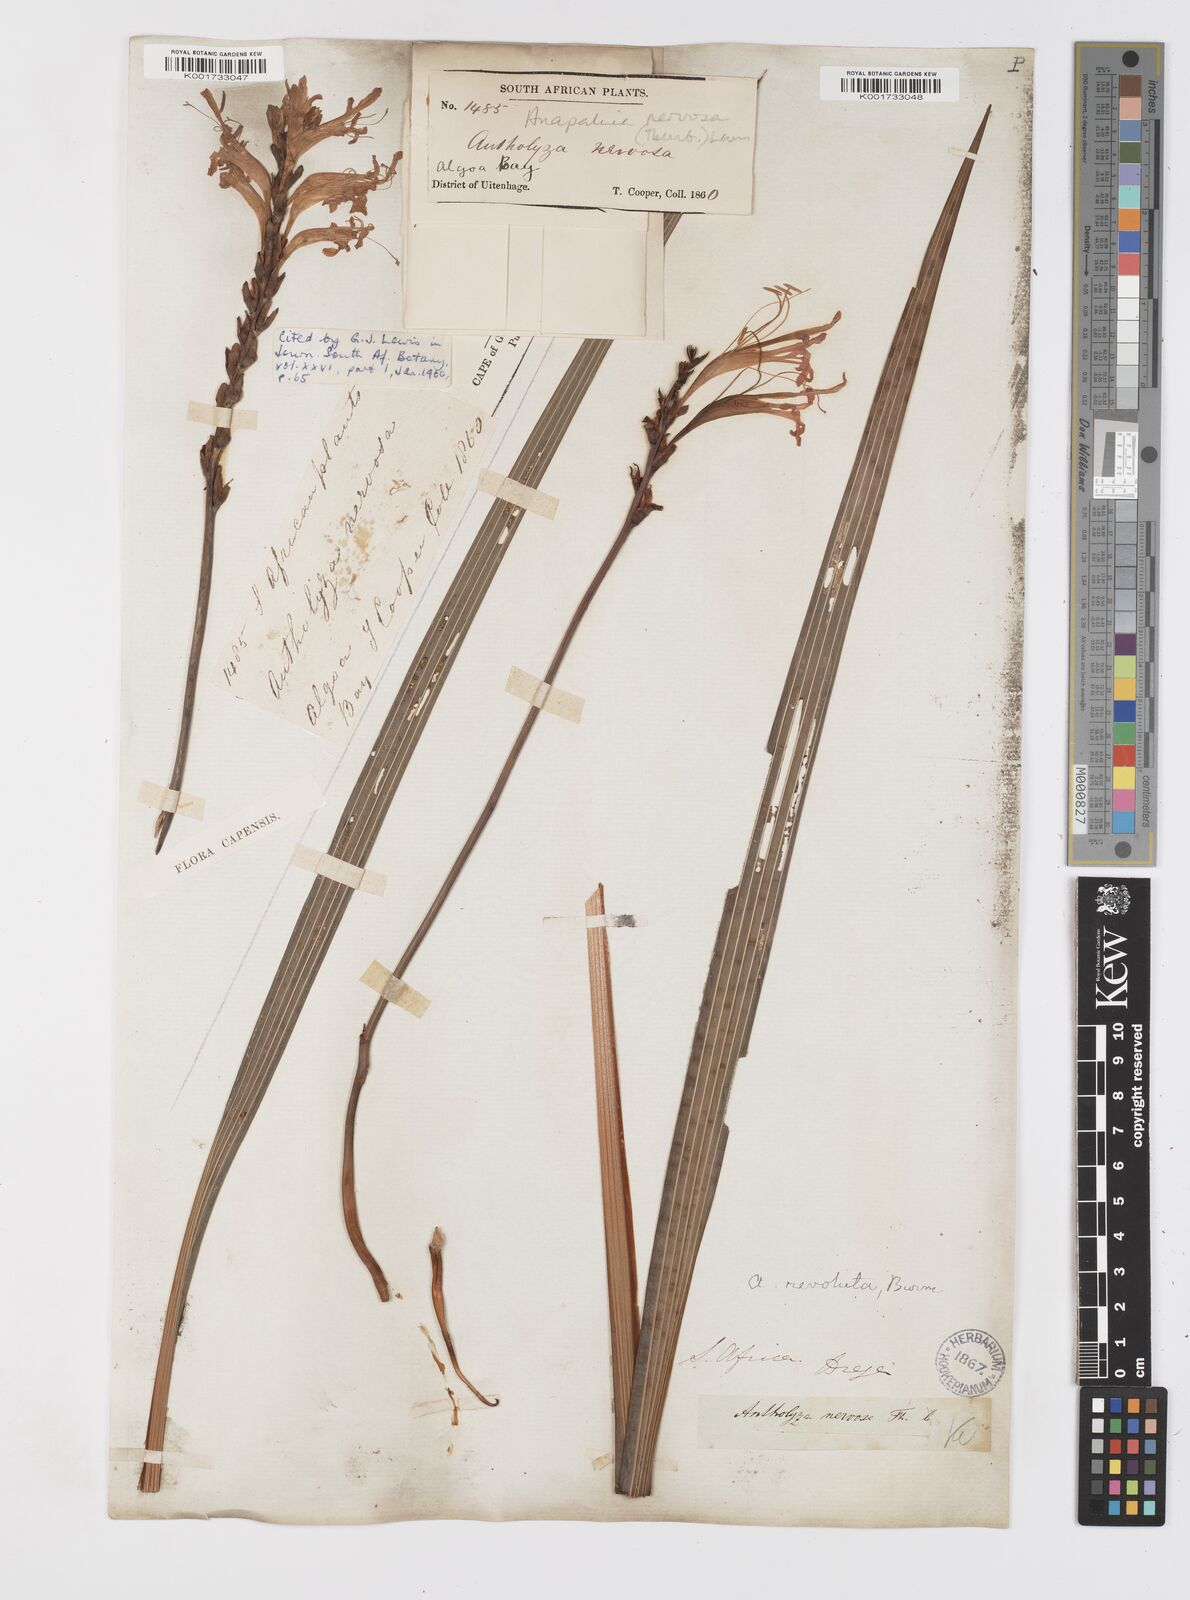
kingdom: Plantae
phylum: Tracheophyta
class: Liliopsida
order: Asparagales
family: Iridaceae
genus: Tritoniopsis
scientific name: Tritoniopsis nervosa
